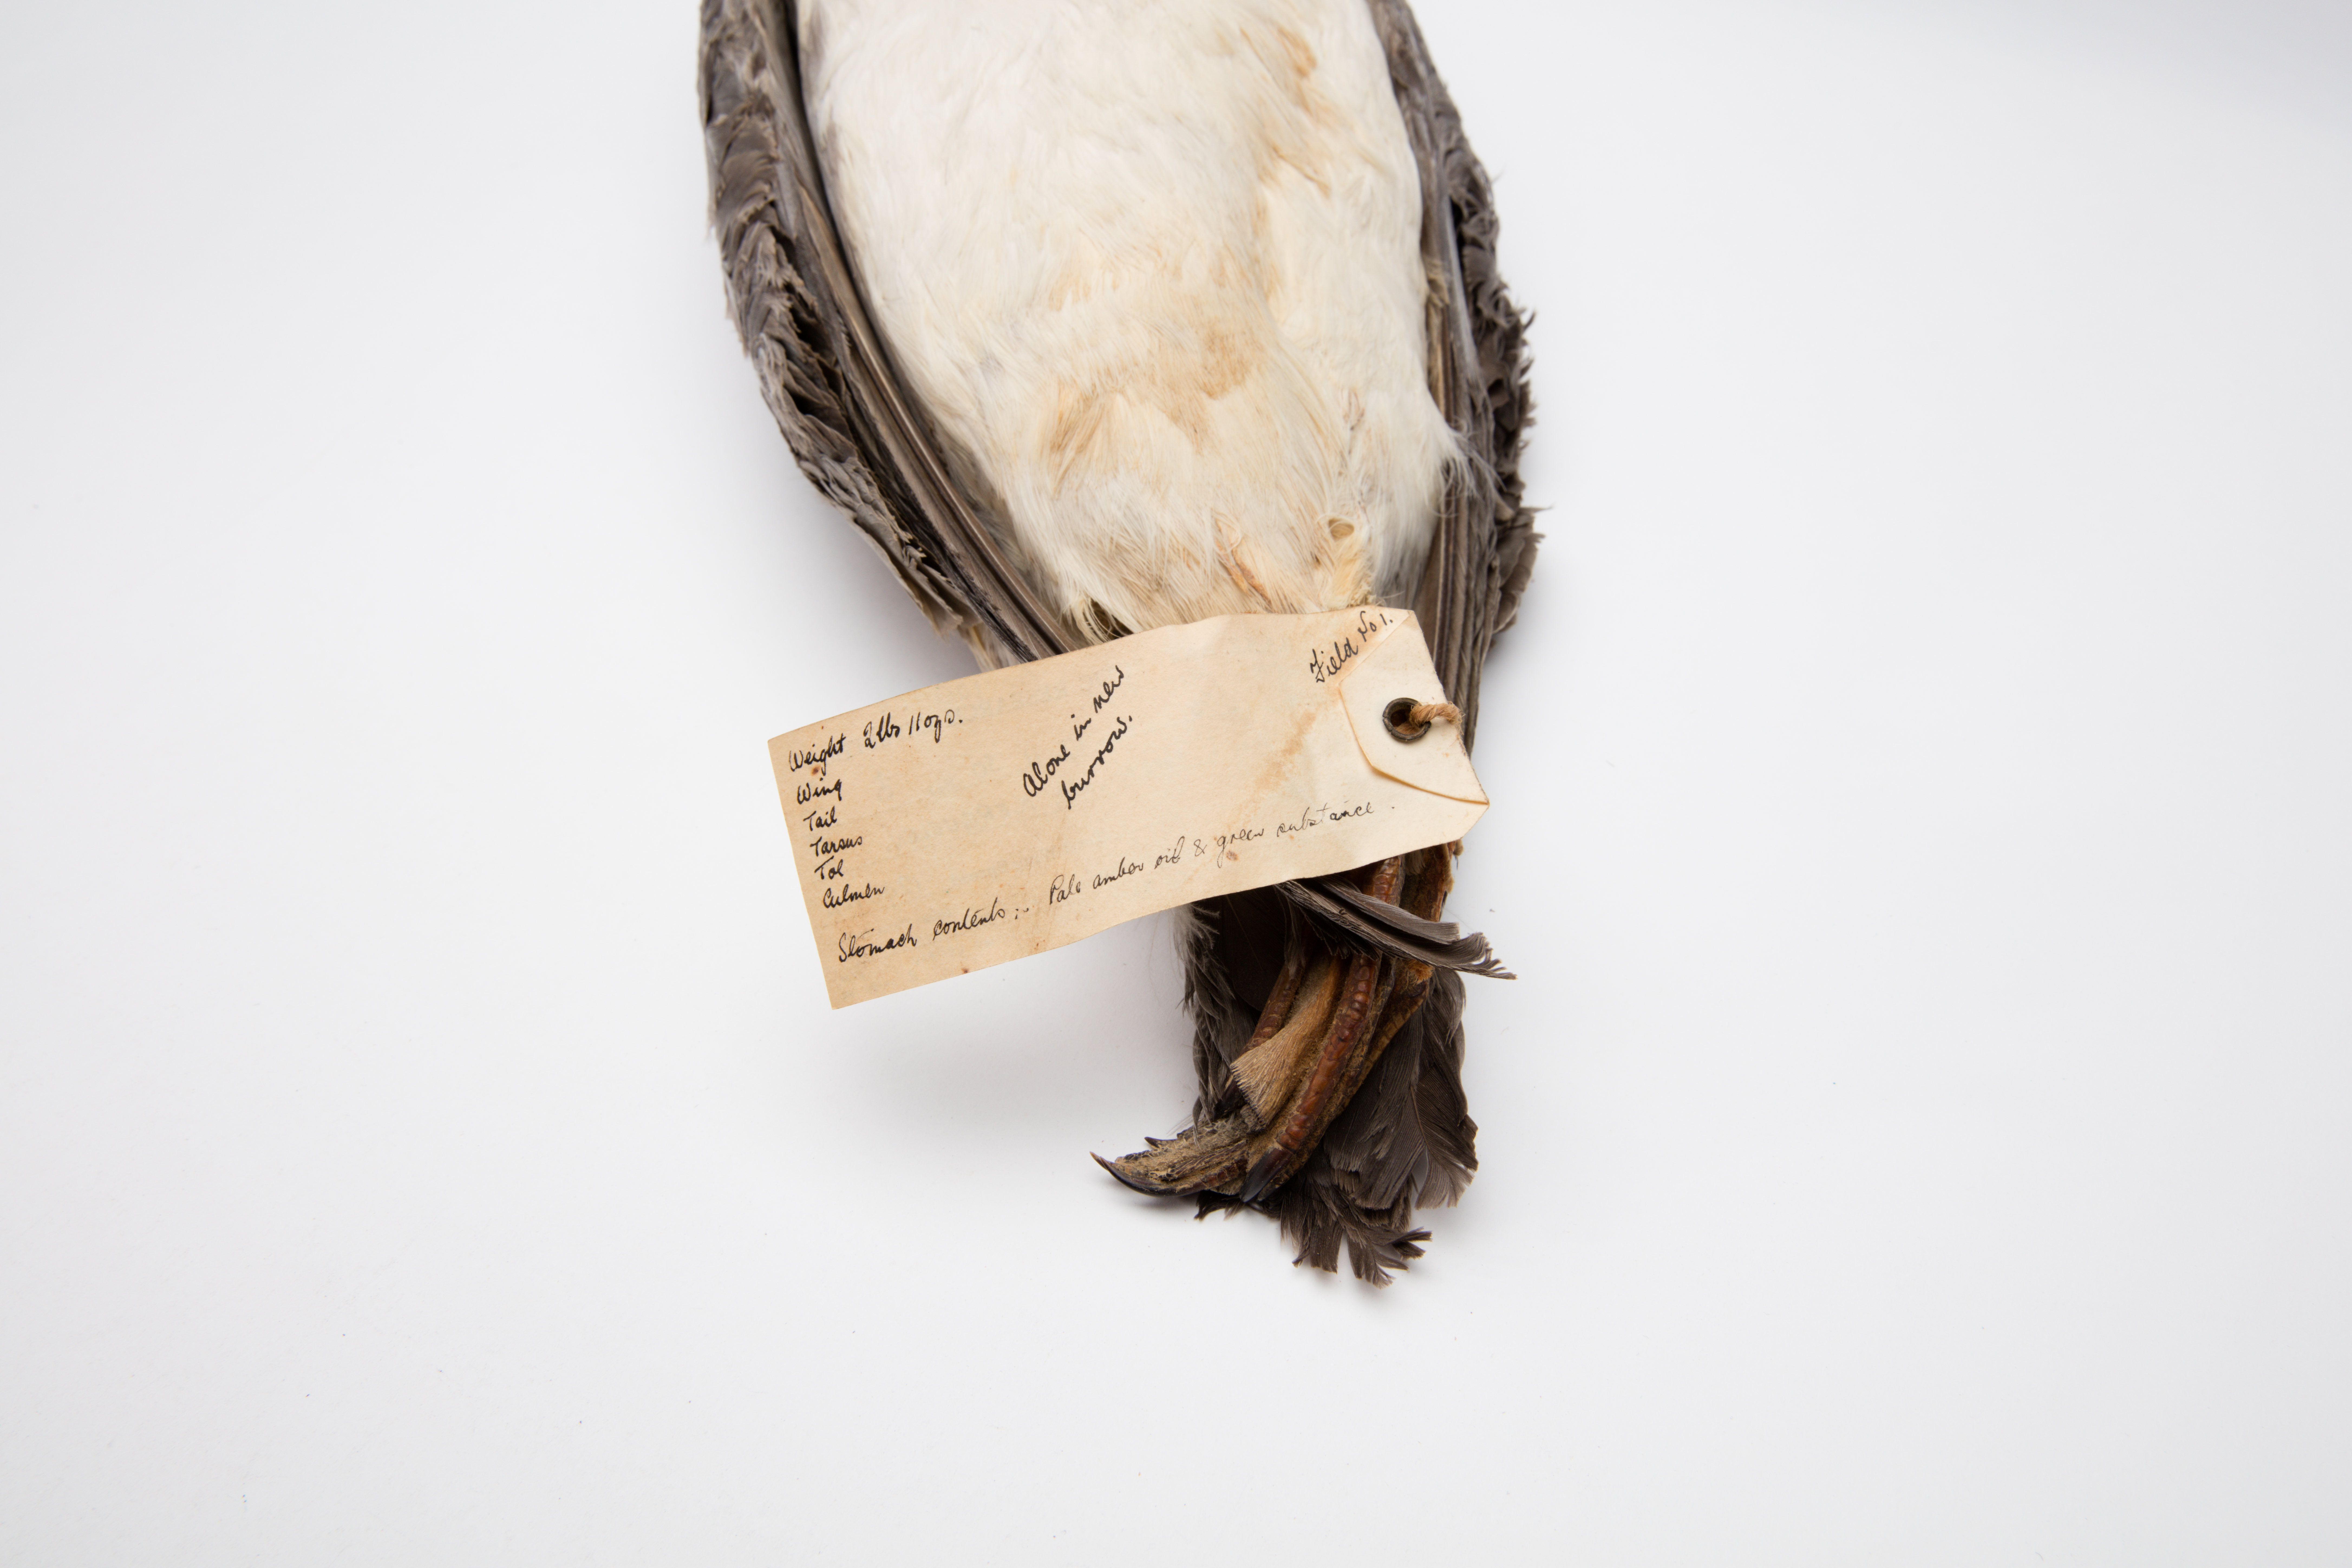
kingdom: Animalia
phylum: Chordata
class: Aves
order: Procellariiformes
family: Procellariidae
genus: Pachyptila
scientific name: Pachyptila salvini
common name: Salvin's prion
